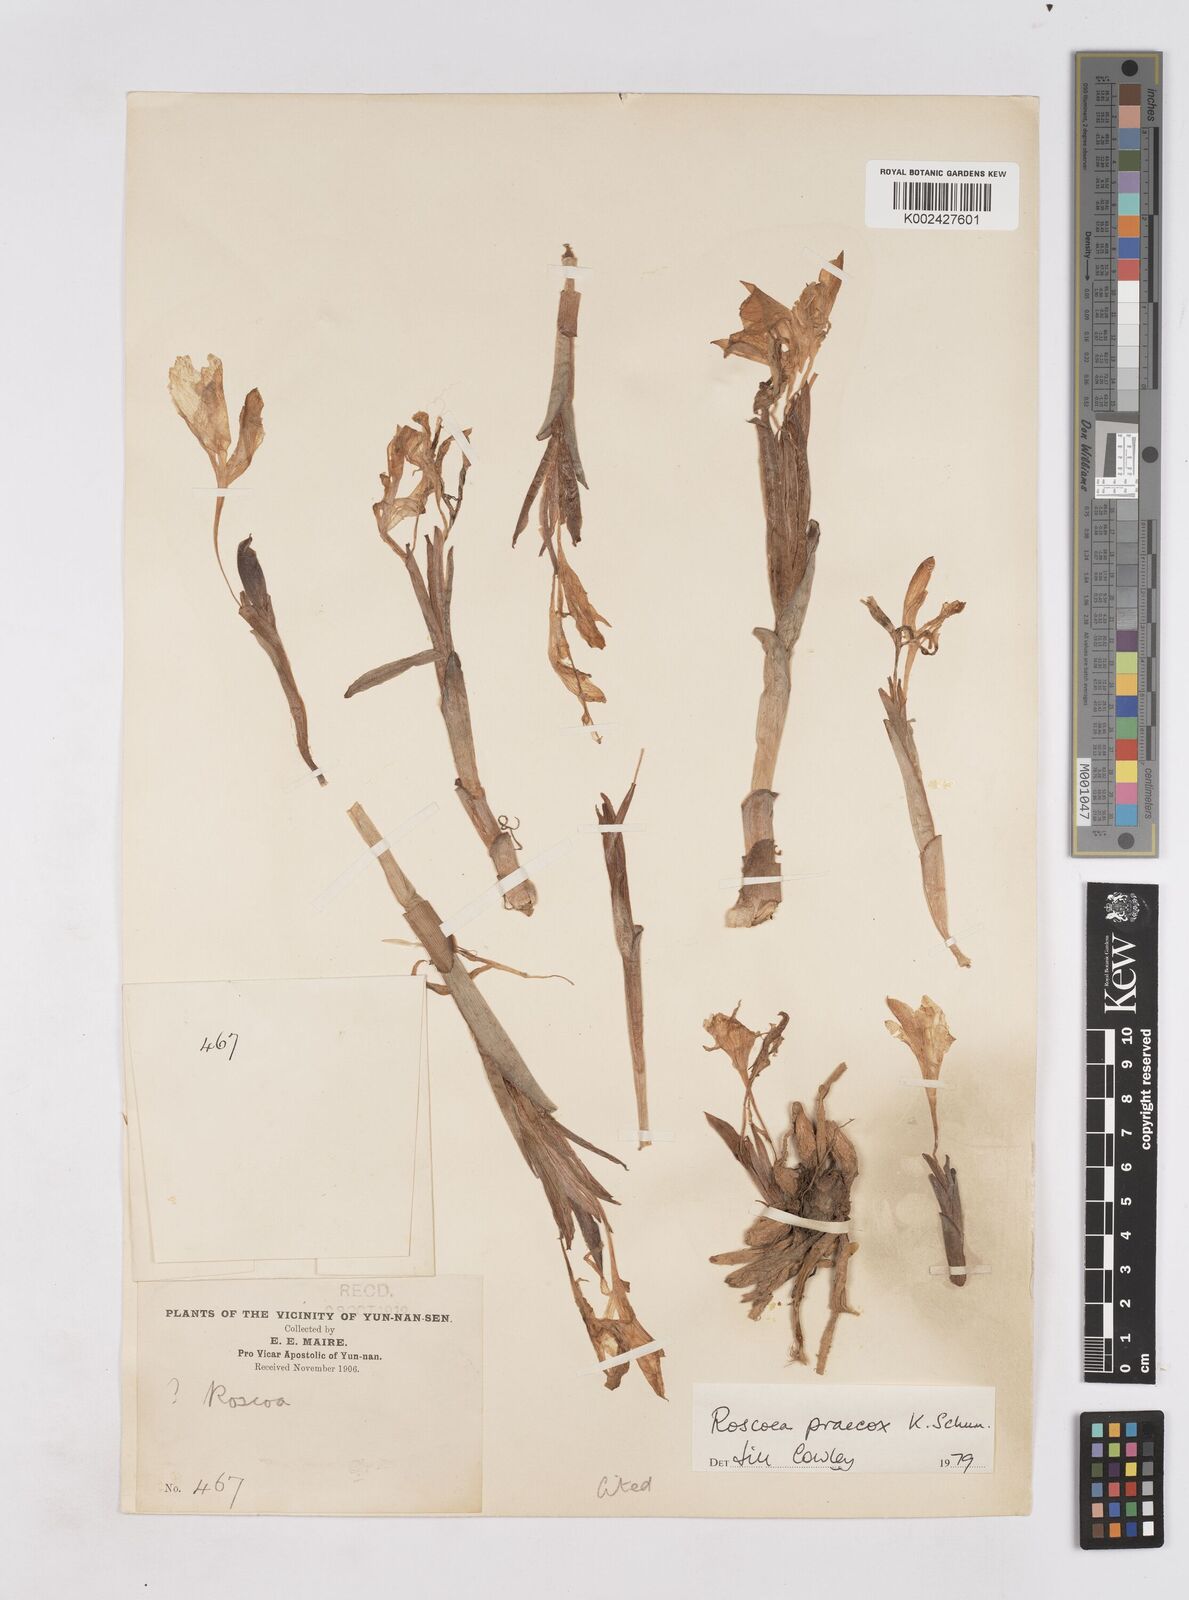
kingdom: Plantae
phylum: Tracheophyta
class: Liliopsida
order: Zingiberales
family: Zingiberaceae
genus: Roscoea
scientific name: Roscoea praecox
